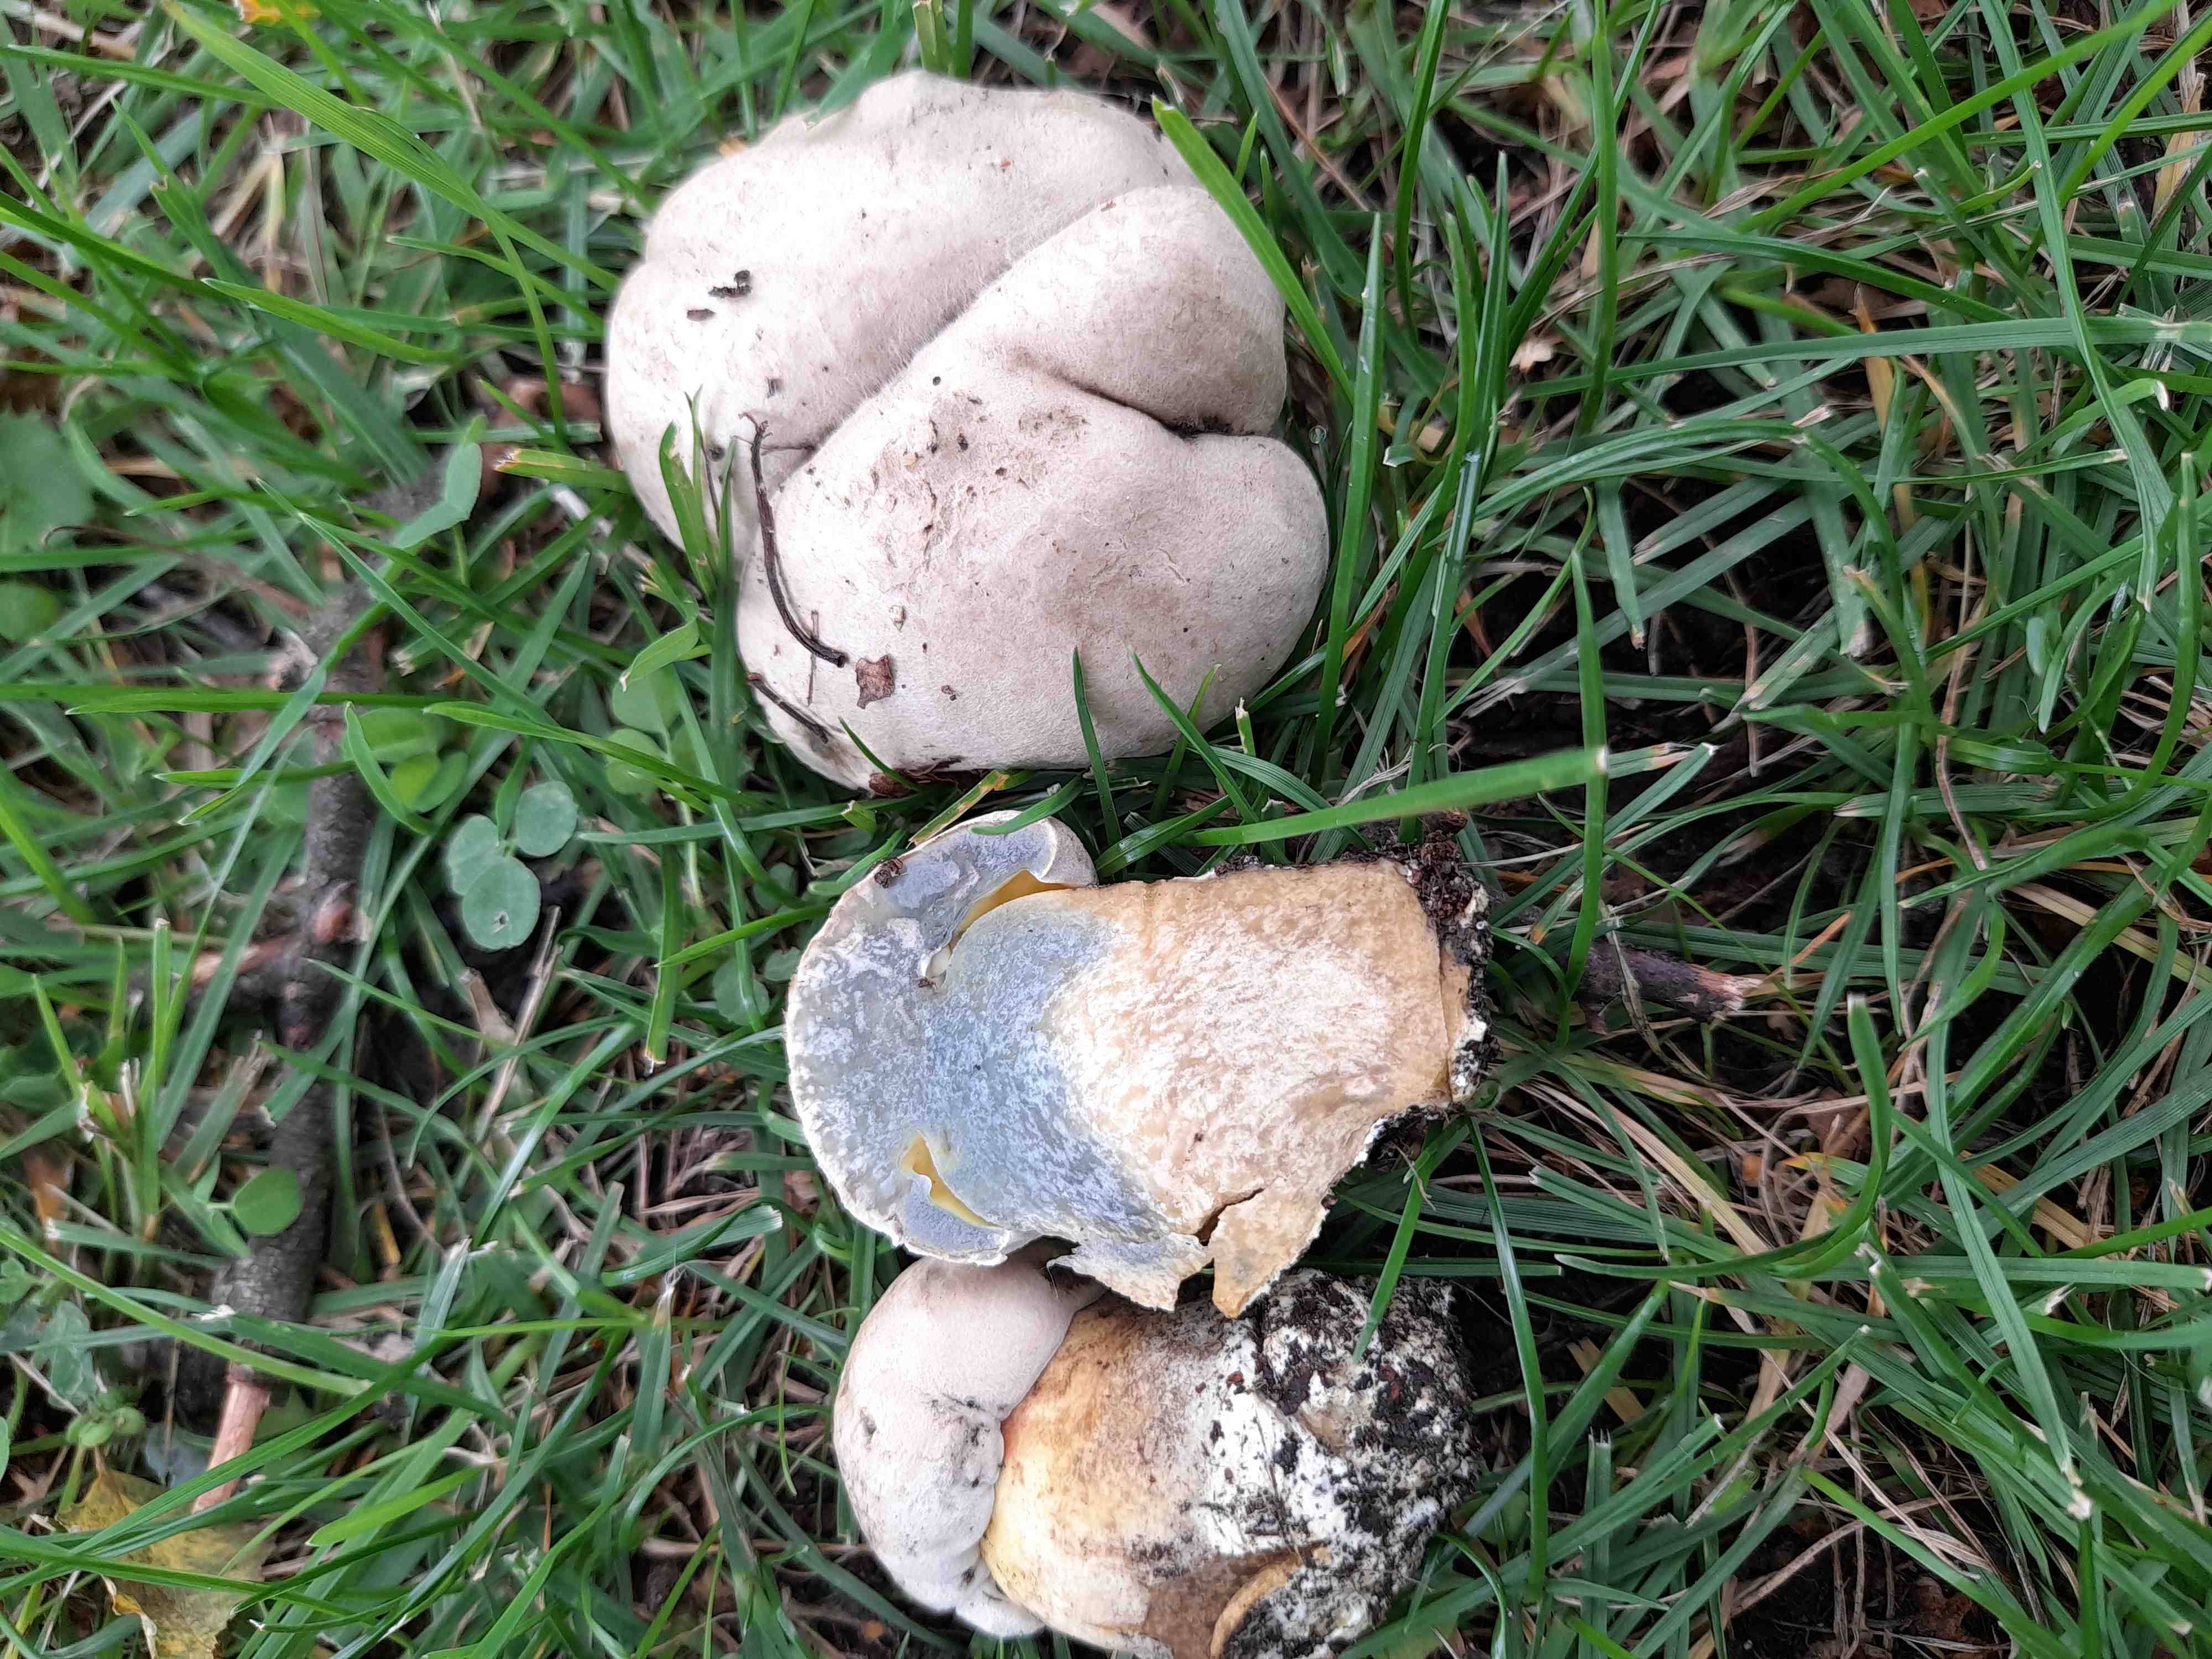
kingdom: Fungi
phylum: Basidiomycota
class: Agaricomycetes
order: Boletales
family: Boletaceae
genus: Caloboletus
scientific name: Caloboletus radicans
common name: rod-rørhat
